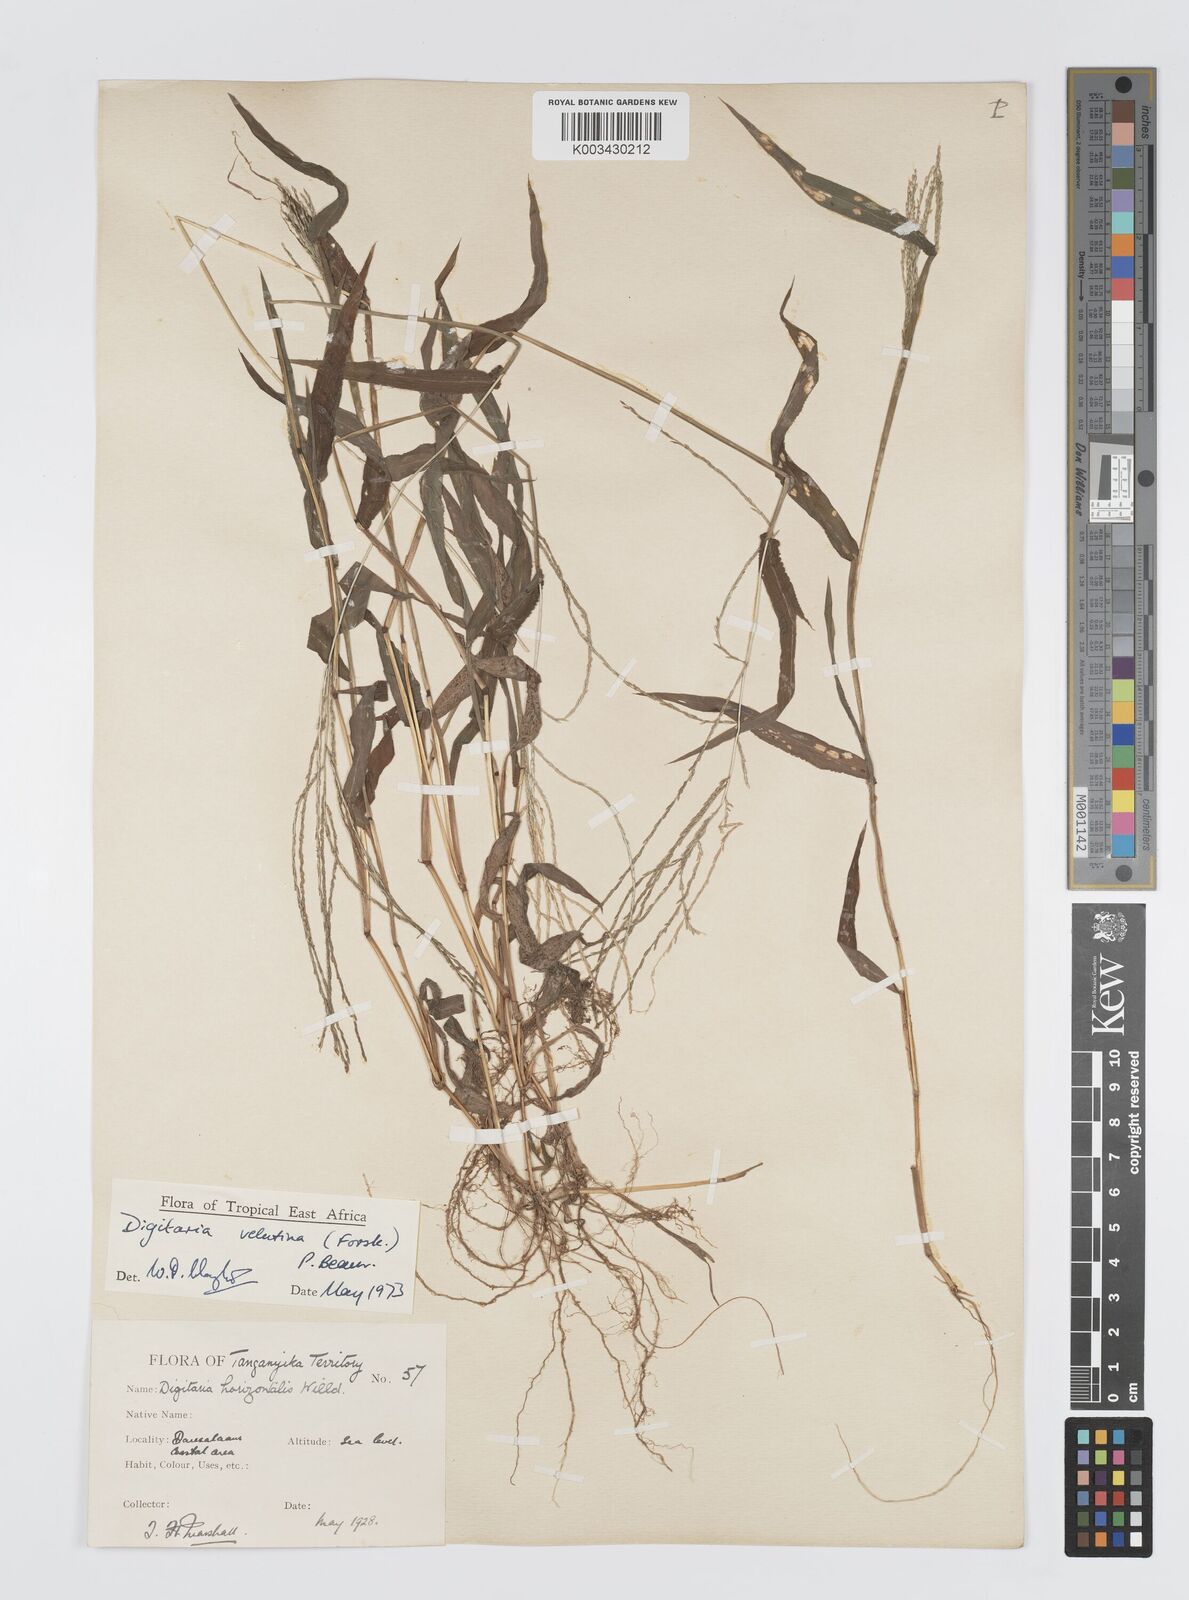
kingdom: Plantae
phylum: Tracheophyta
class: Liliopsida
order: Poales
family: Poaceae
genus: Digitaria
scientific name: Digitaria velutina
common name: Long-plume finger grass
